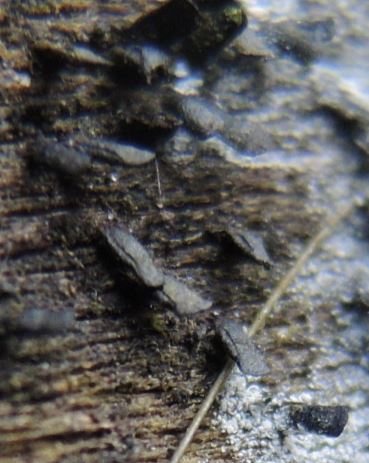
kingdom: Fungi
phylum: Ascomycota
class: Eurotiomycetes
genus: Glyphium
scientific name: Glyphium elatum
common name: kuløkse
